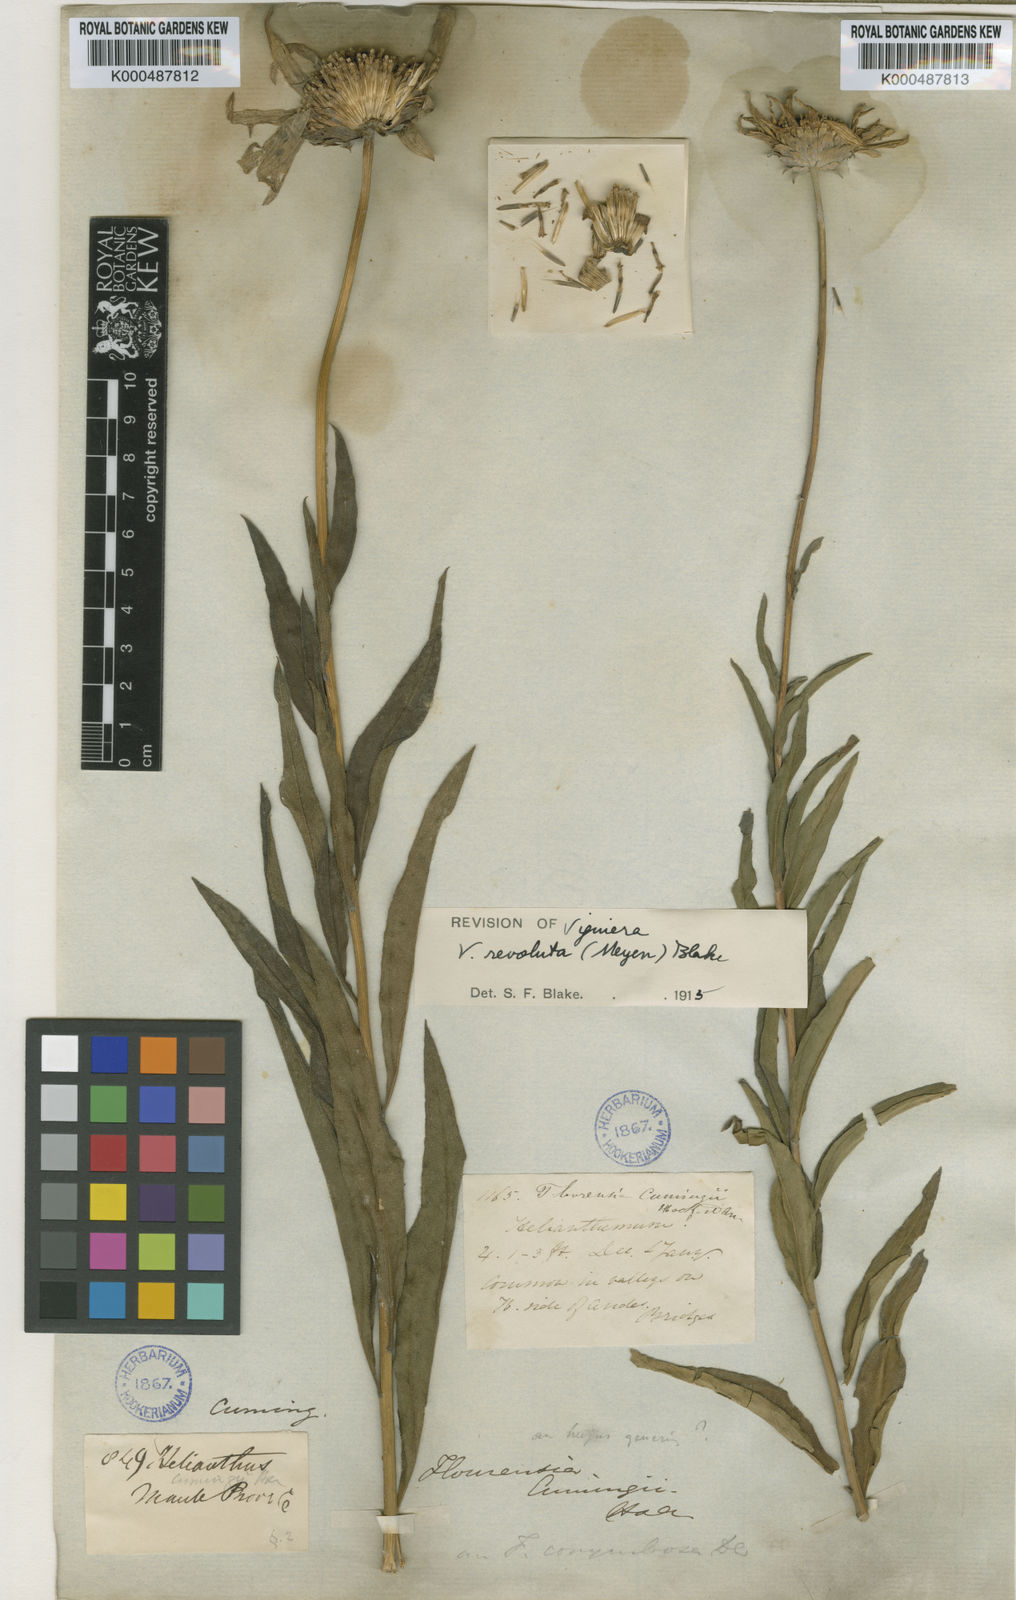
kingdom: Plantae
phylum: Tracheophyta
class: Magnoliopsida
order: Asterales
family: Asteraceae
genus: Aldama
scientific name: Aldama revoluta
